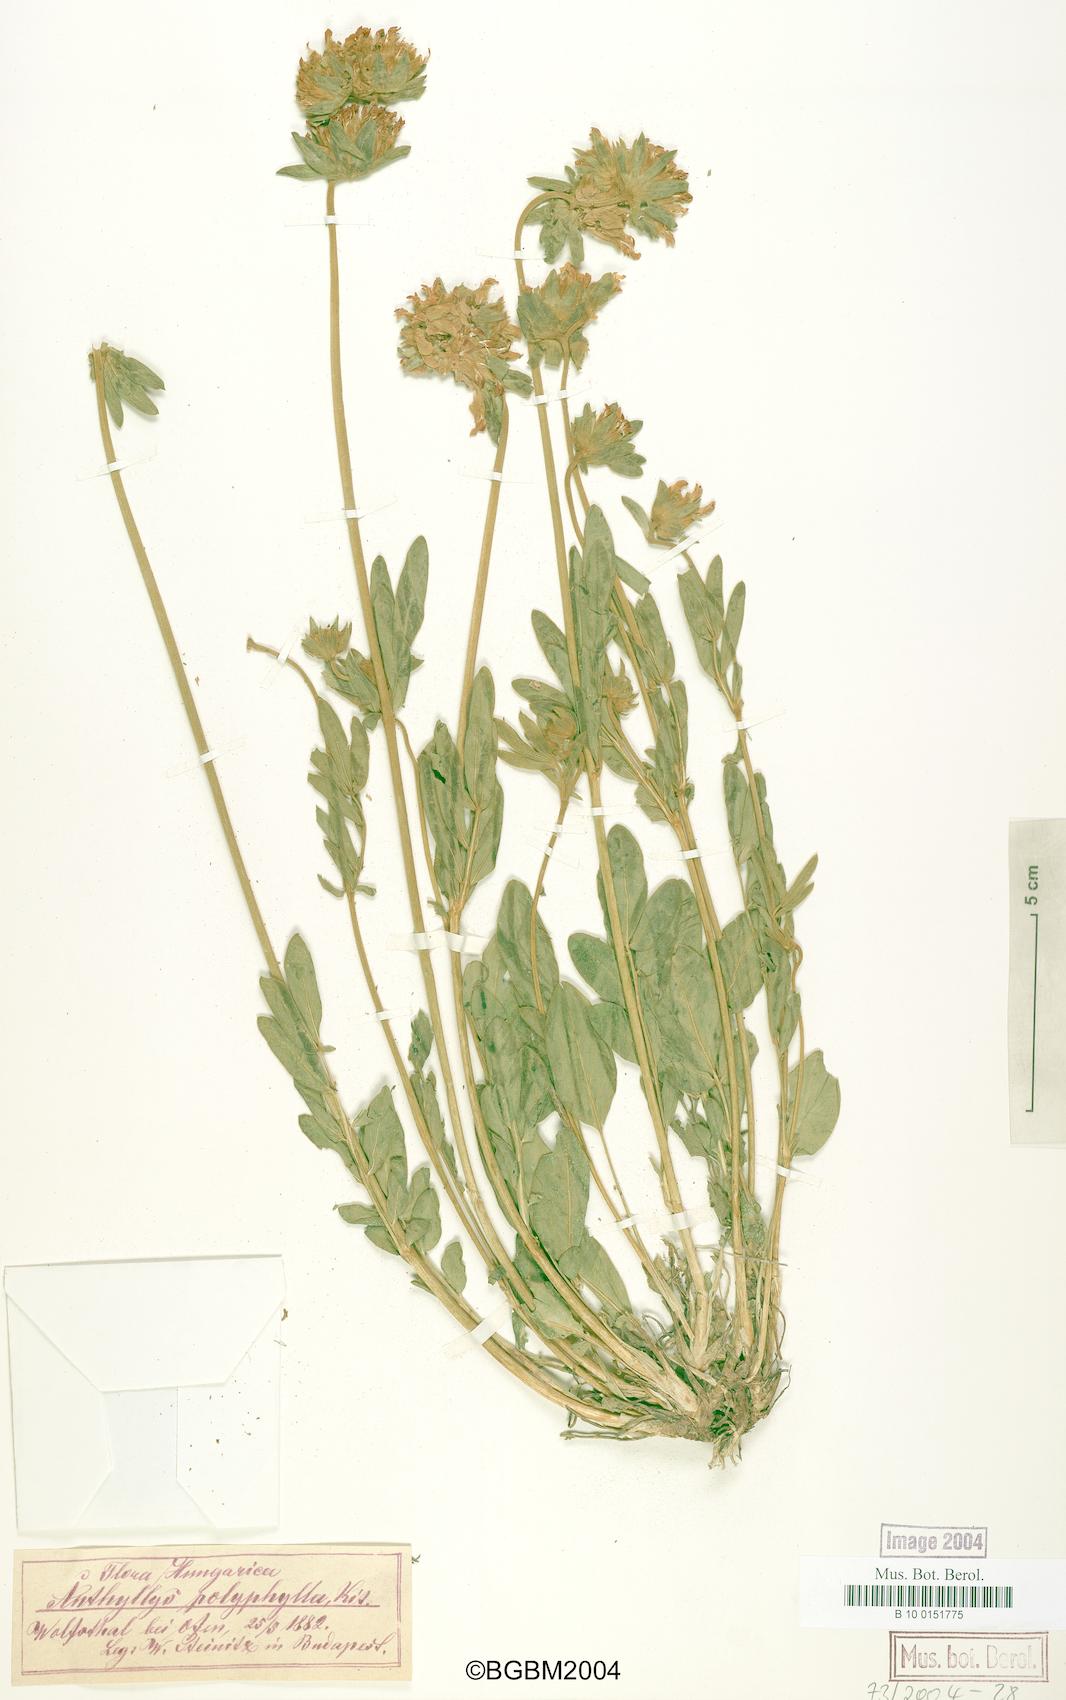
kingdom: Plantae
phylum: Tracheophyta
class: Magnoliopsida
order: Fabales
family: Fabaceae
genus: Anthyllis
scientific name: Anthyllis vulneraria
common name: Kidney vetch
